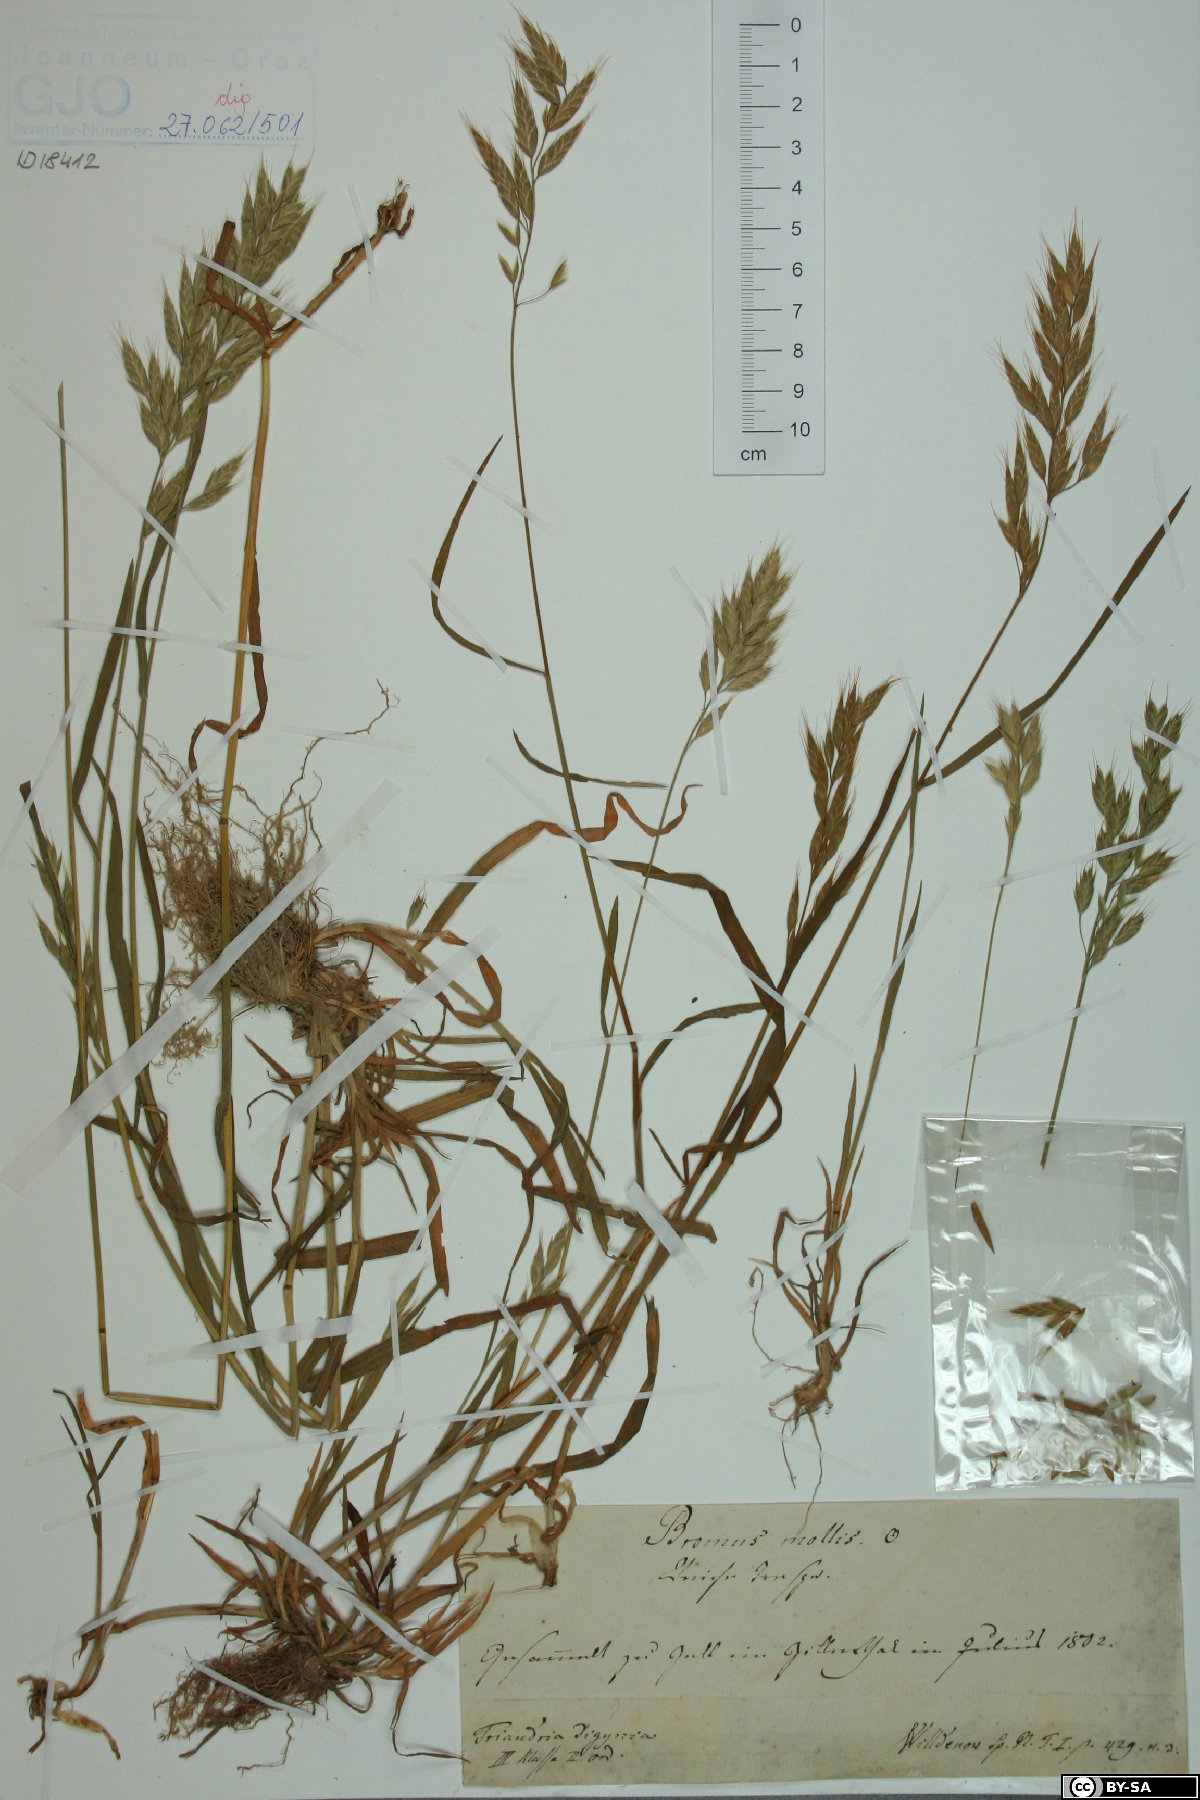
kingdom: Plantae
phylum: Tracheophyta
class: Liliopsida
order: Poales
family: Poaceae
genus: Bromus
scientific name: Bromus hordeaceus
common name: Soft brome
